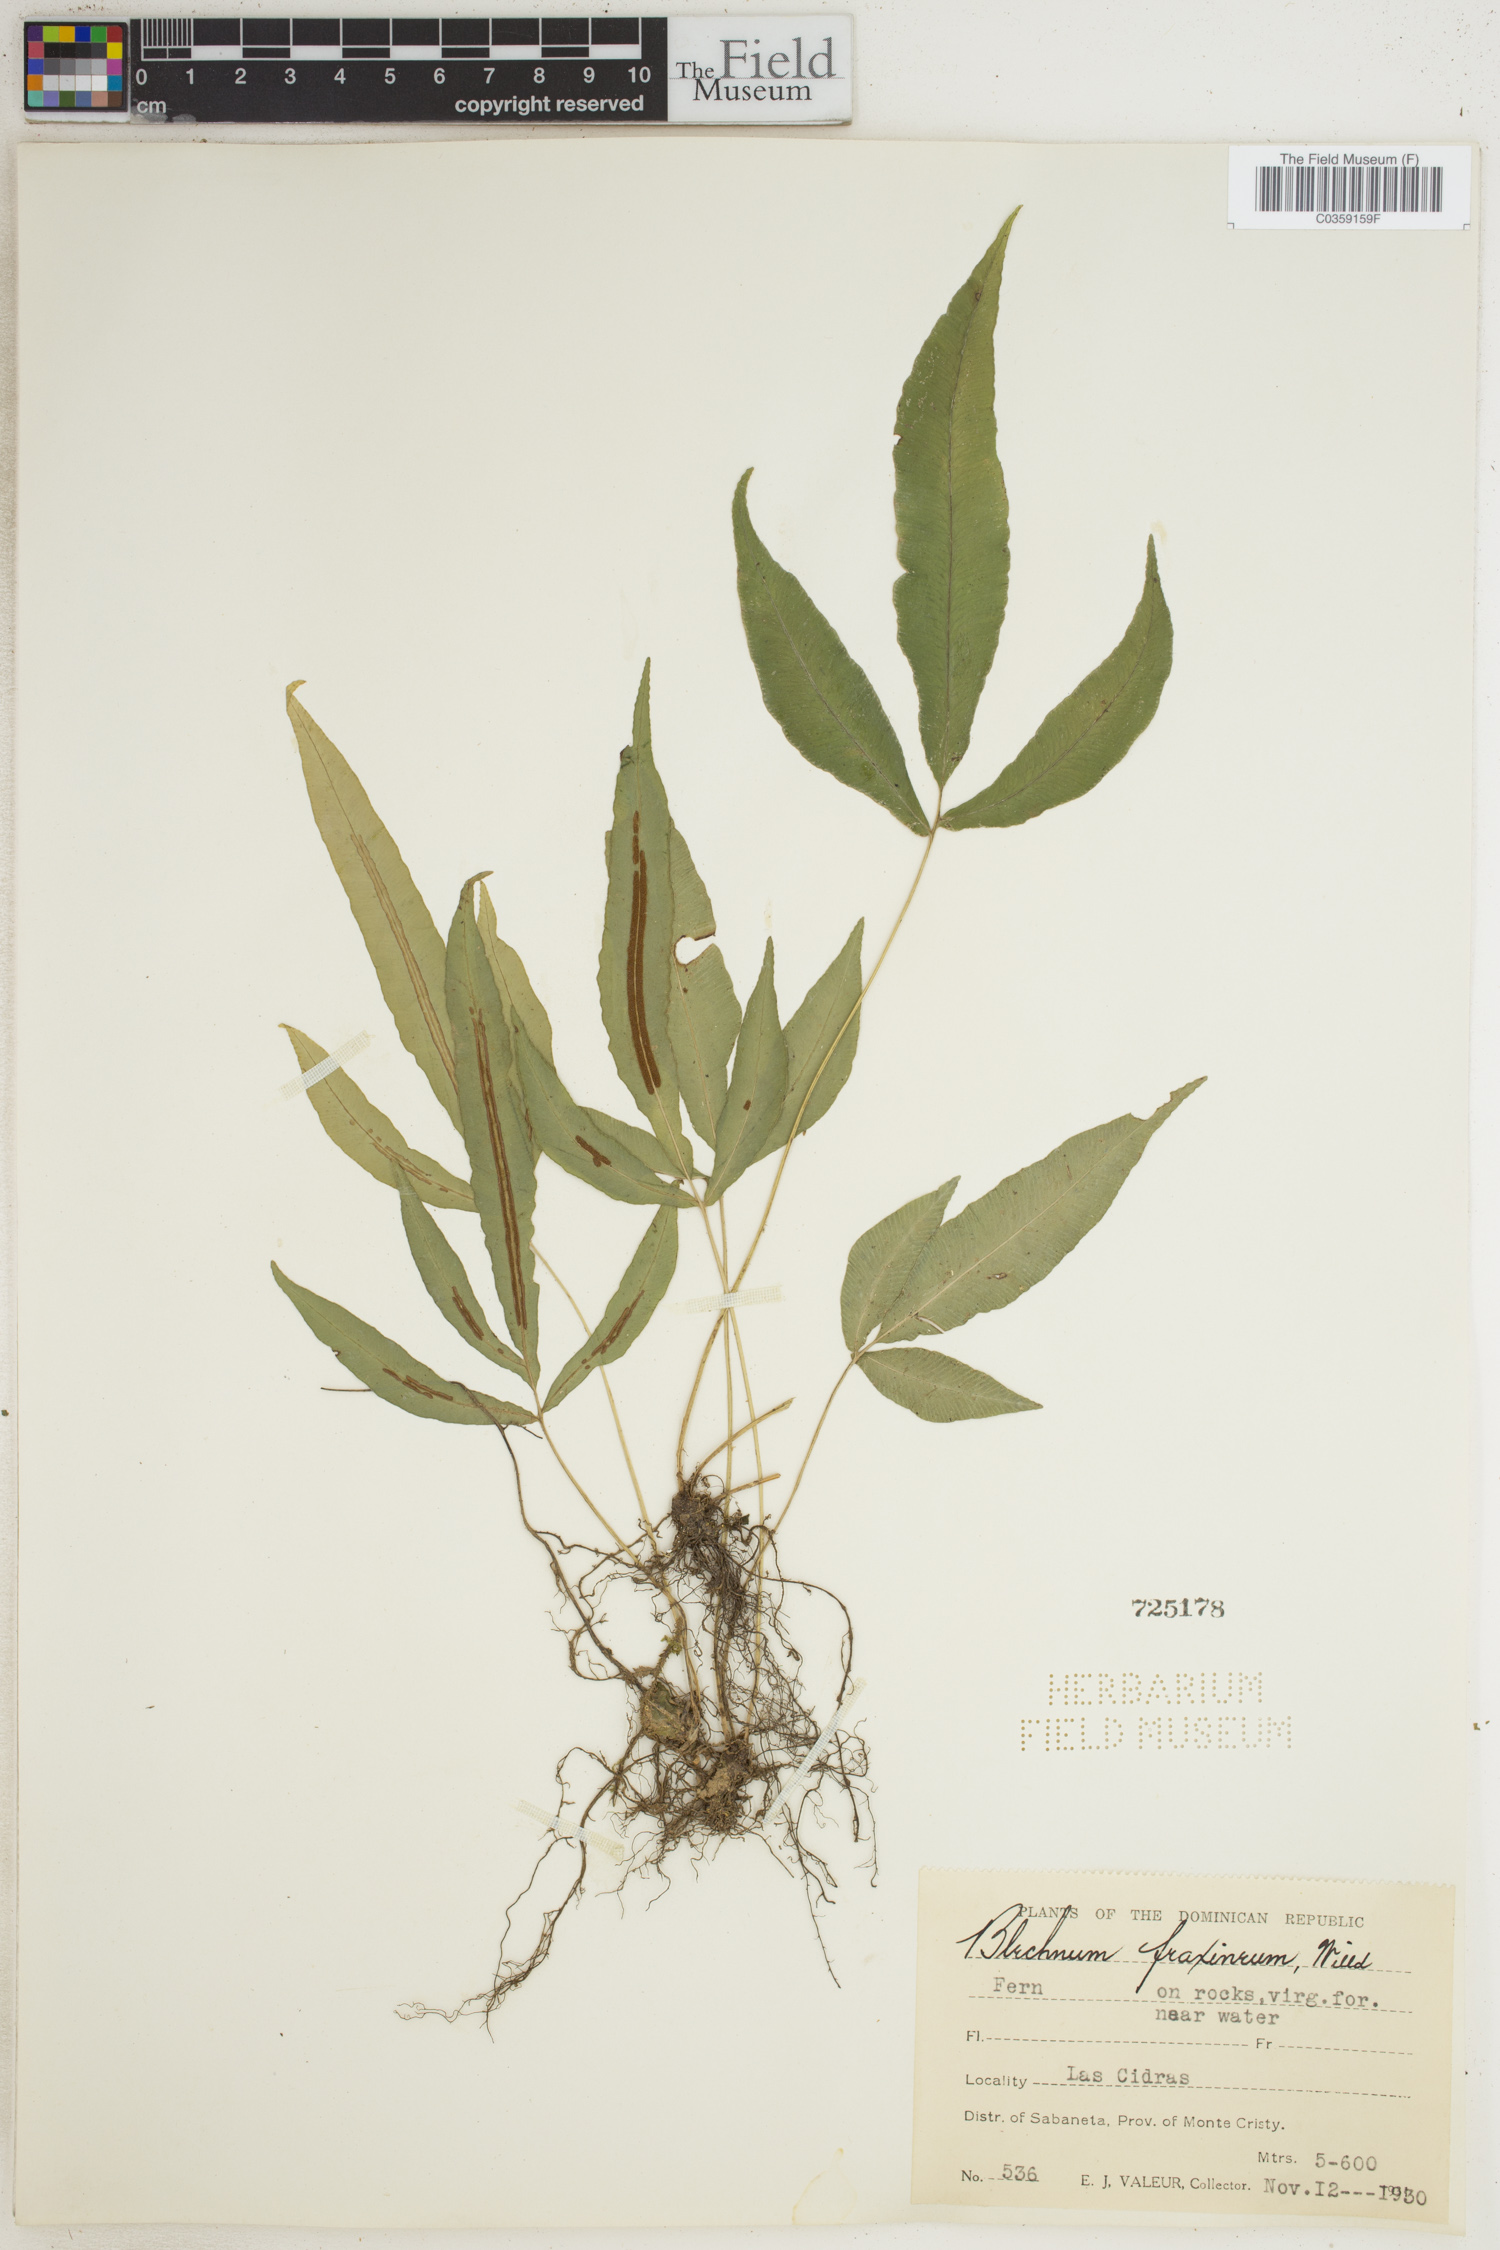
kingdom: Plantae
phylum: Tracheophyta
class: Polypodiopsida
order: Polypodiales
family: Blechnaceae
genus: Blechnum
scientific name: Blechnum gracile
